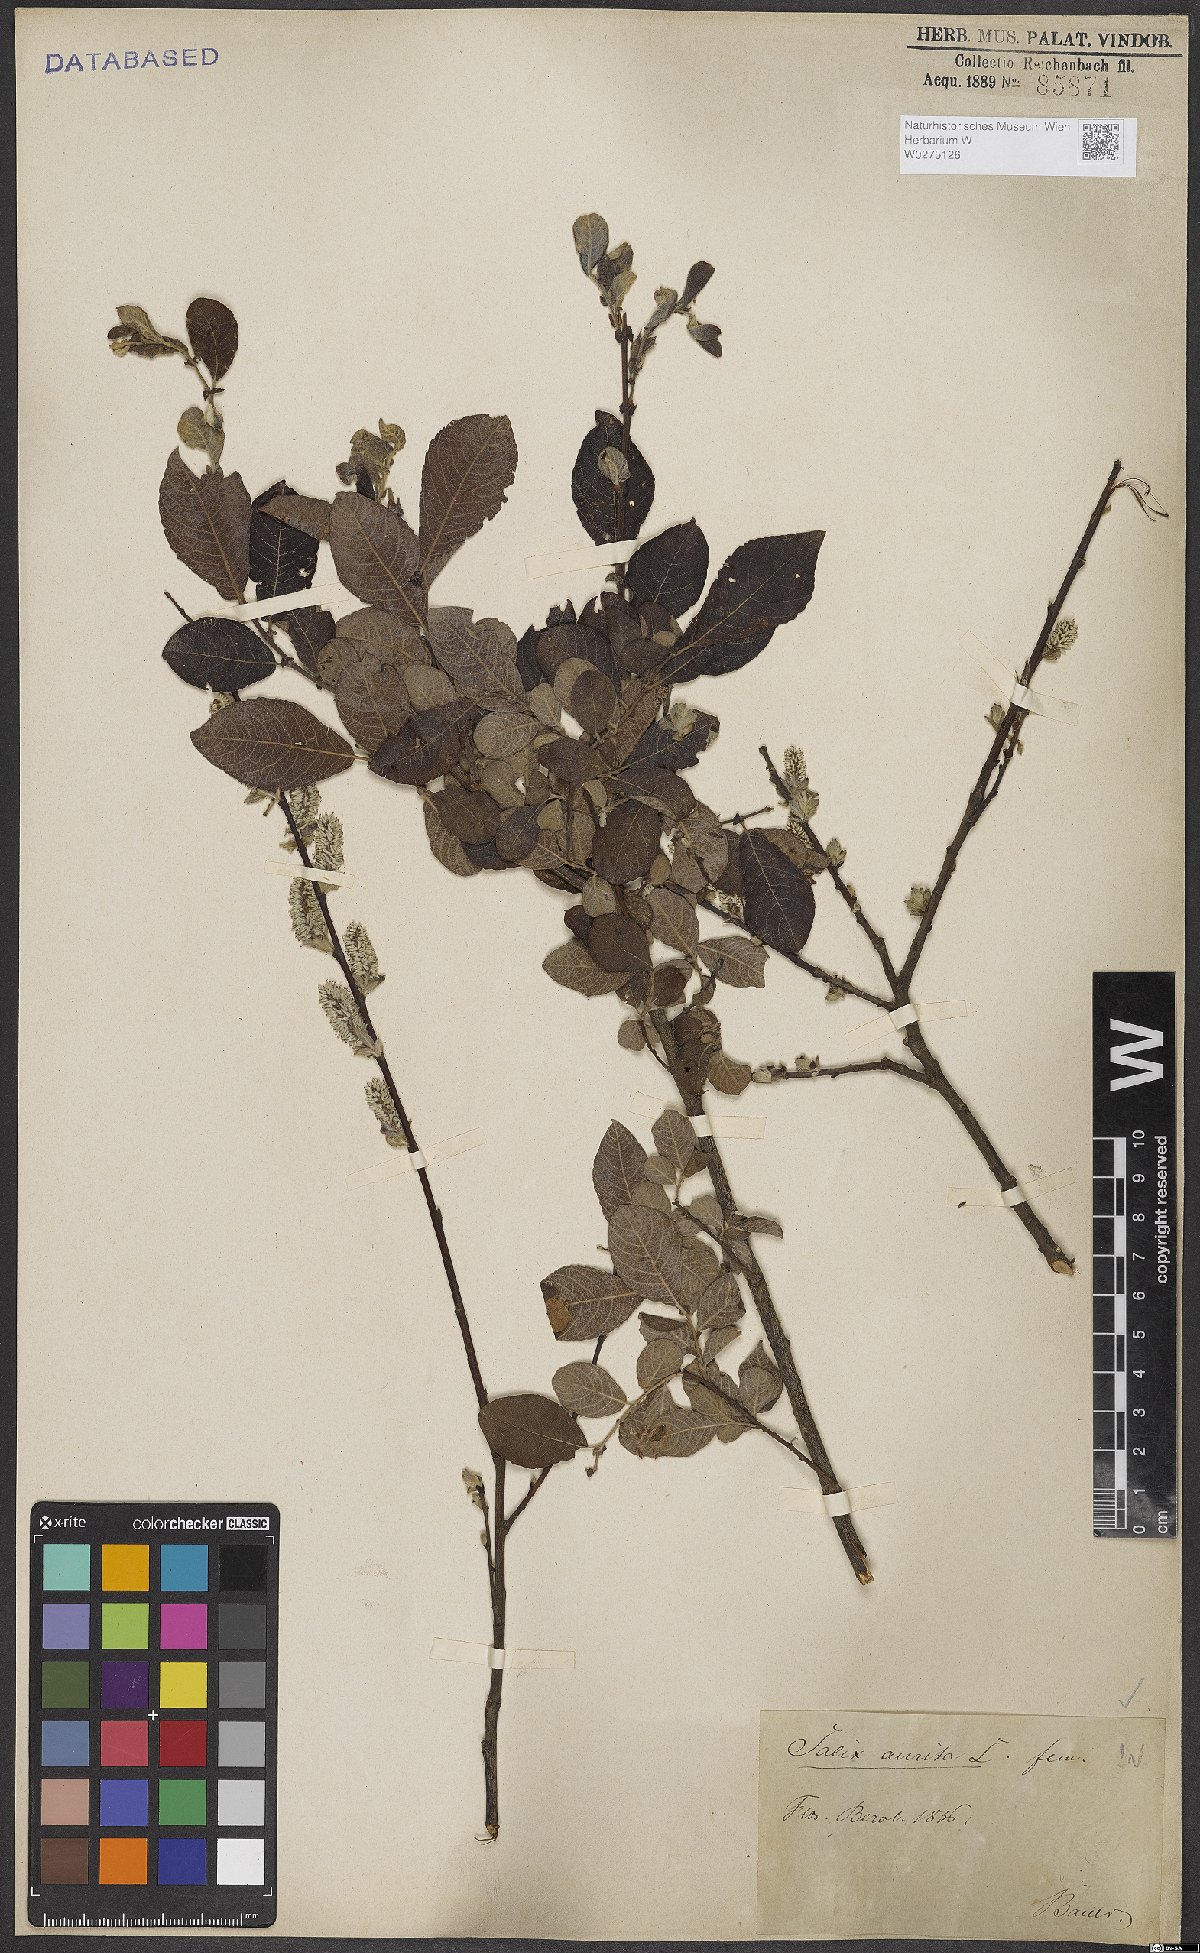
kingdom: Plantae
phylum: Tracheophyta
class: Magnoliopsida
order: Malpighiales
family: Salicaceae
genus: Salix
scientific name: Salix aurita
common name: Eared willow
